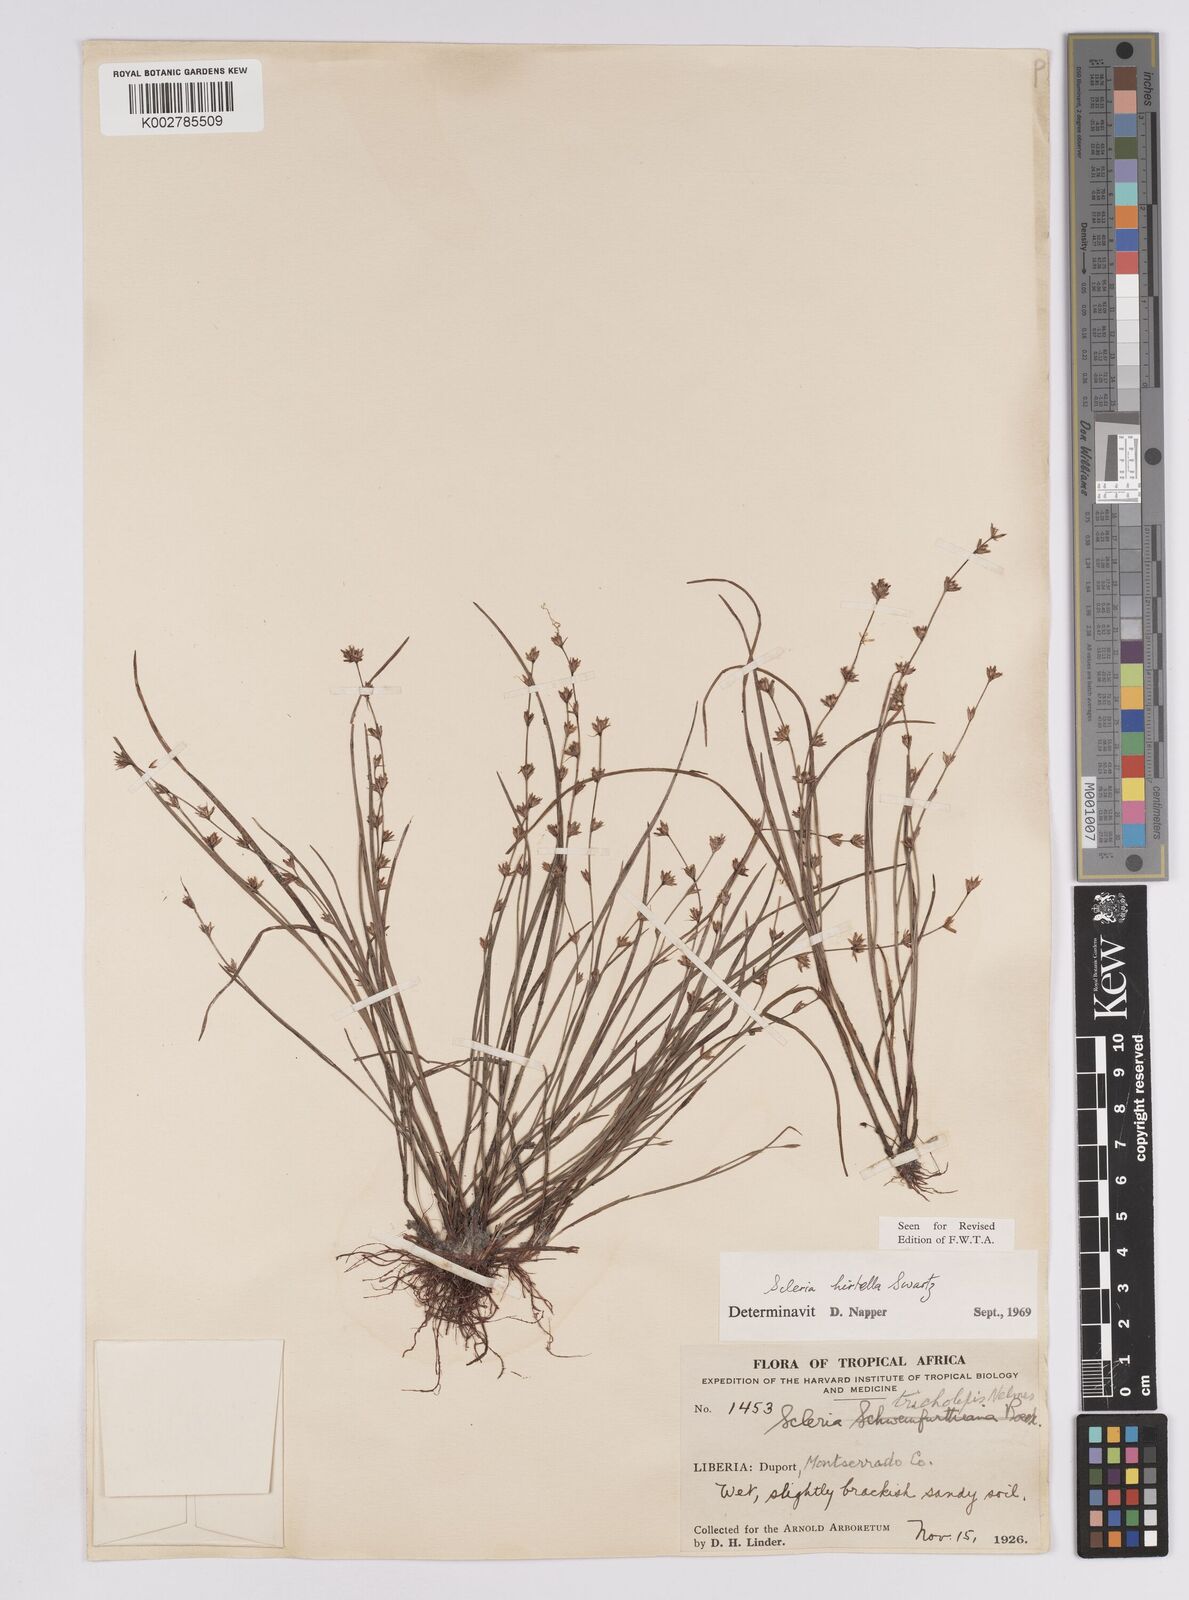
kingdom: Plantae
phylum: Tracheophyta
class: Liliopsida
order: Poales
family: Cyperaceae
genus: Scleria
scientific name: Scleria tricholepis
